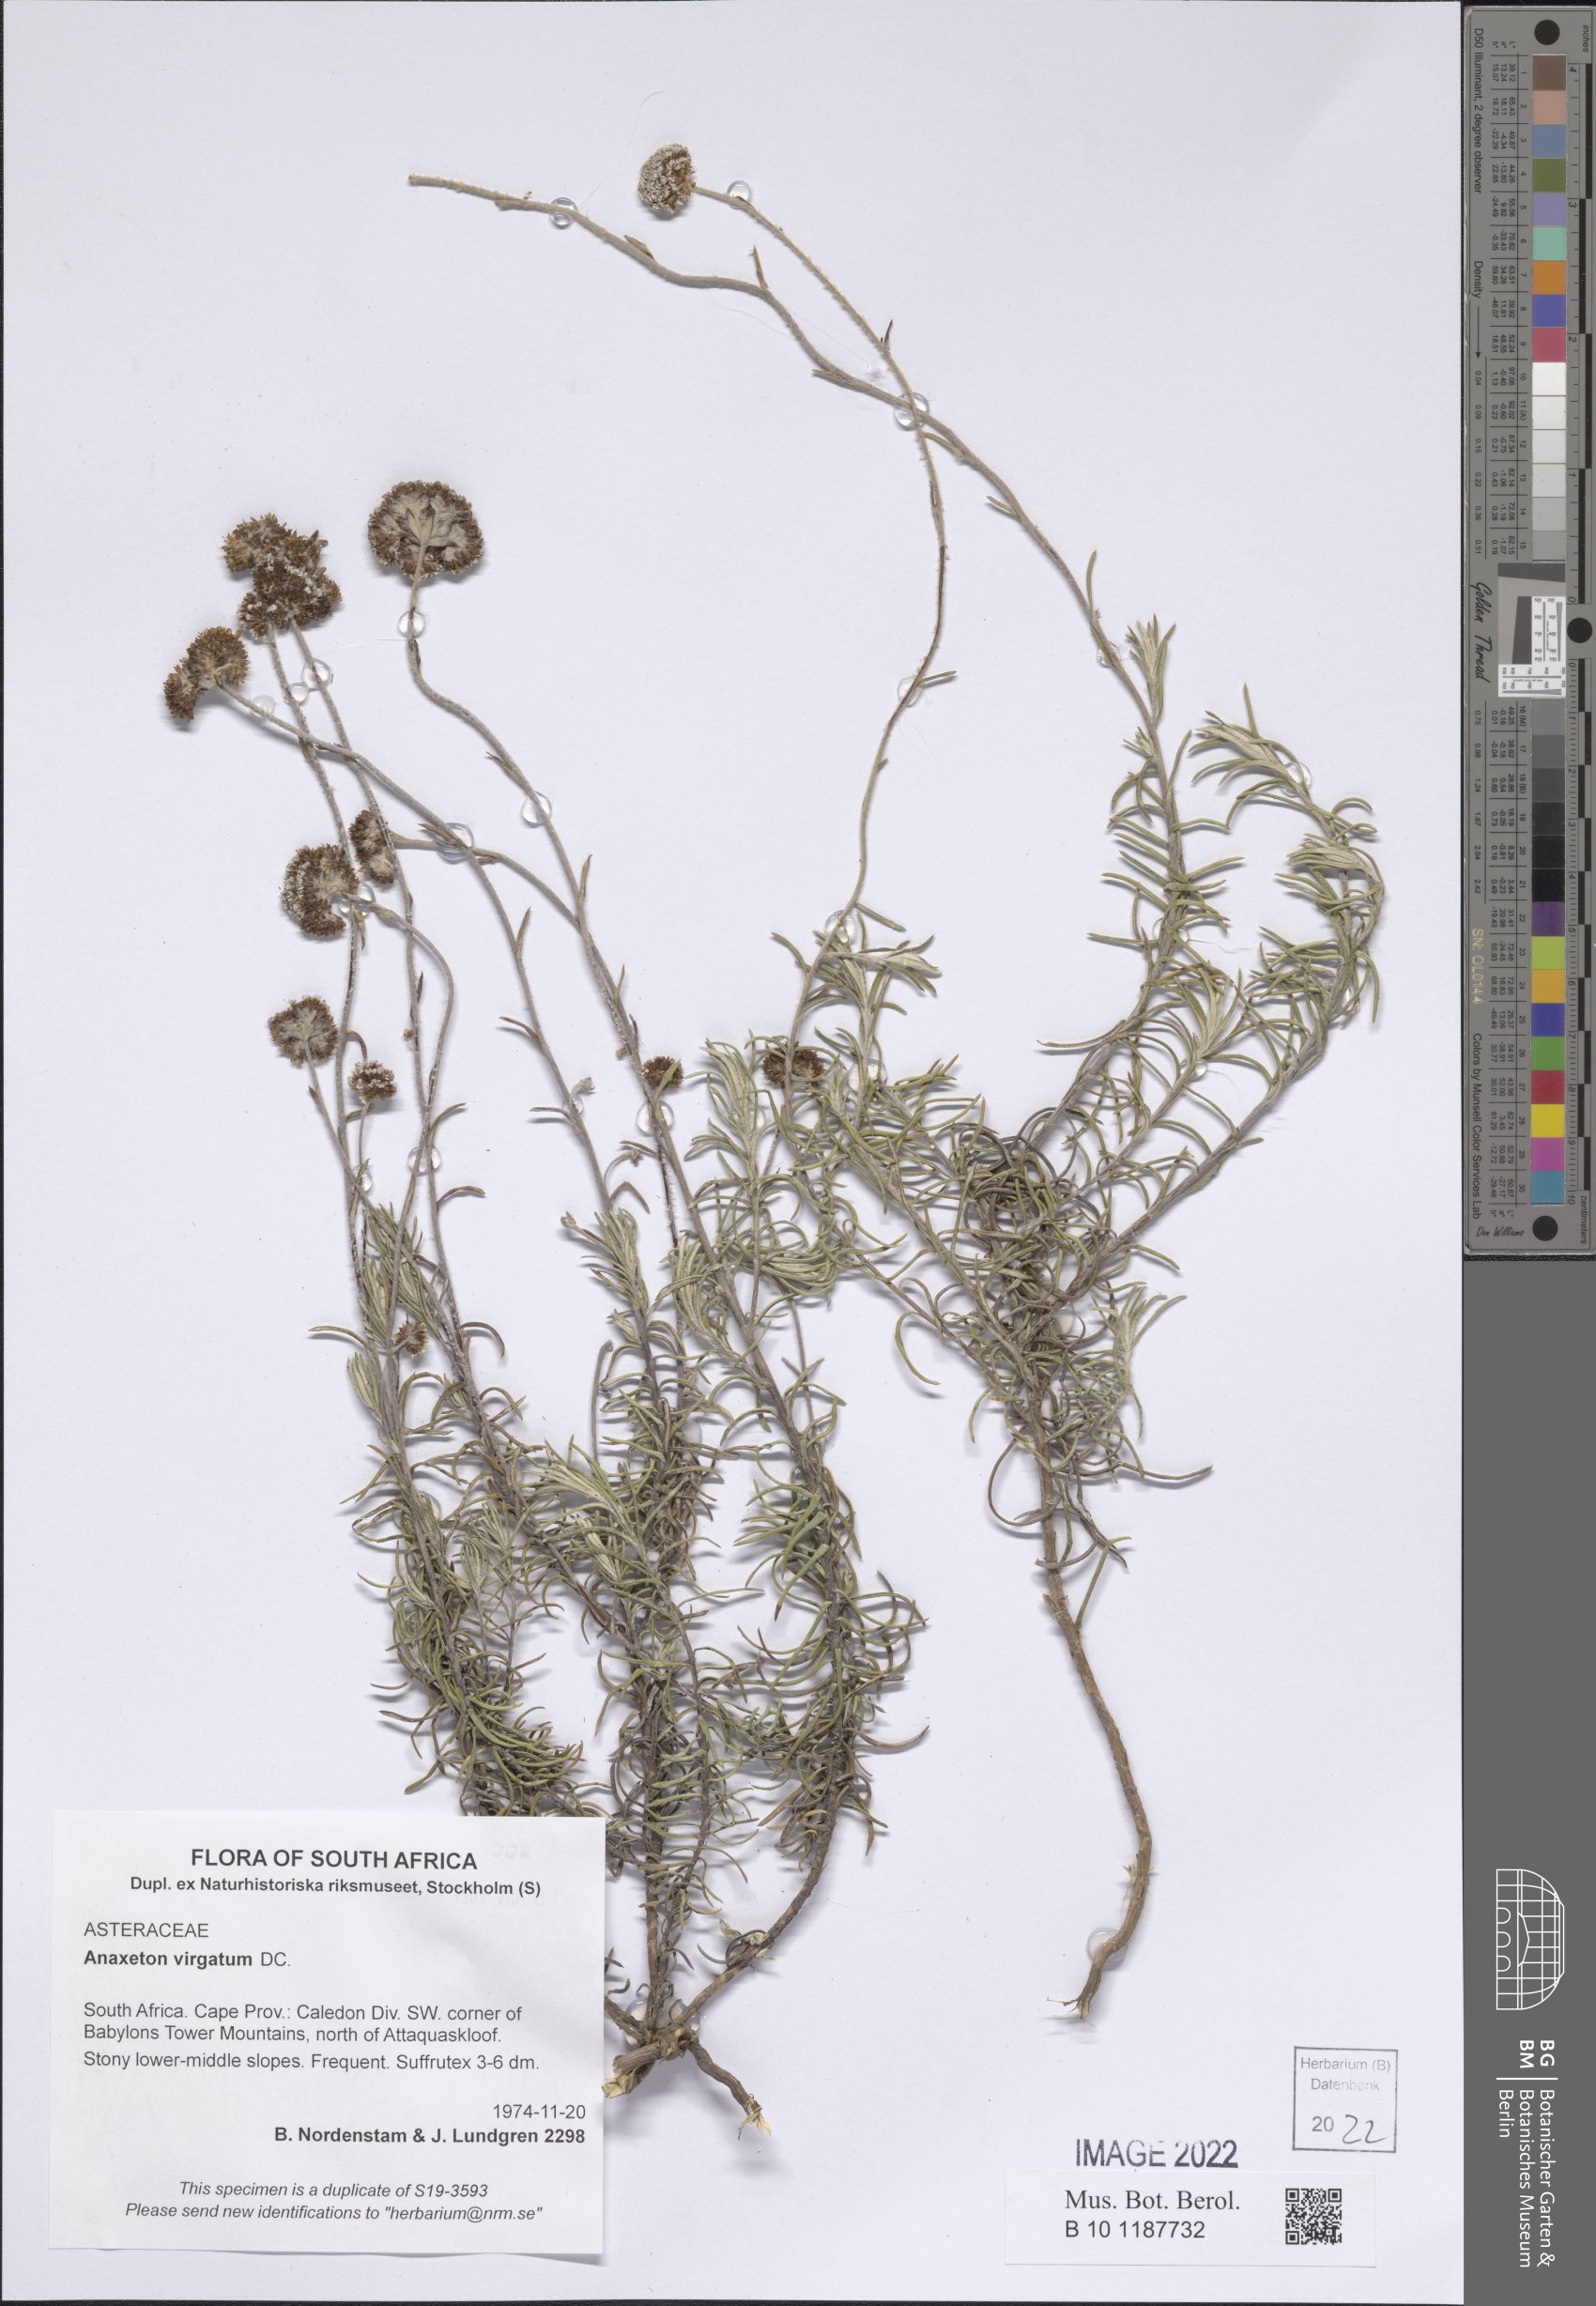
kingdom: Plantae
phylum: Tracheophyta
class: Magnoliopsida
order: Asterales
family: Asteraceae
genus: Anaxeton
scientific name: Anaxeton virgatum
